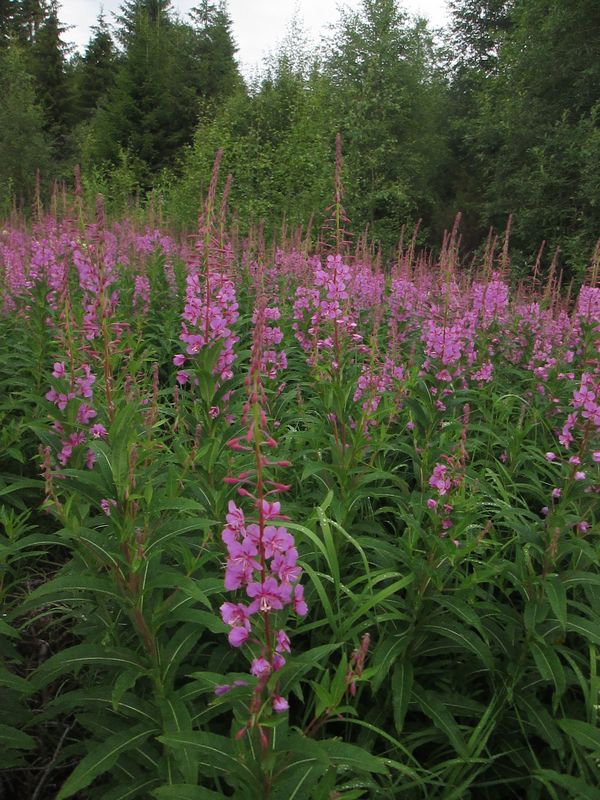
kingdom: Plantae
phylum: Tracheophyta
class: Magnoliopsida
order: Myrtales
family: Onagraceae
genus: Chamaenerion
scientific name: Chamaenerion angustifolium
